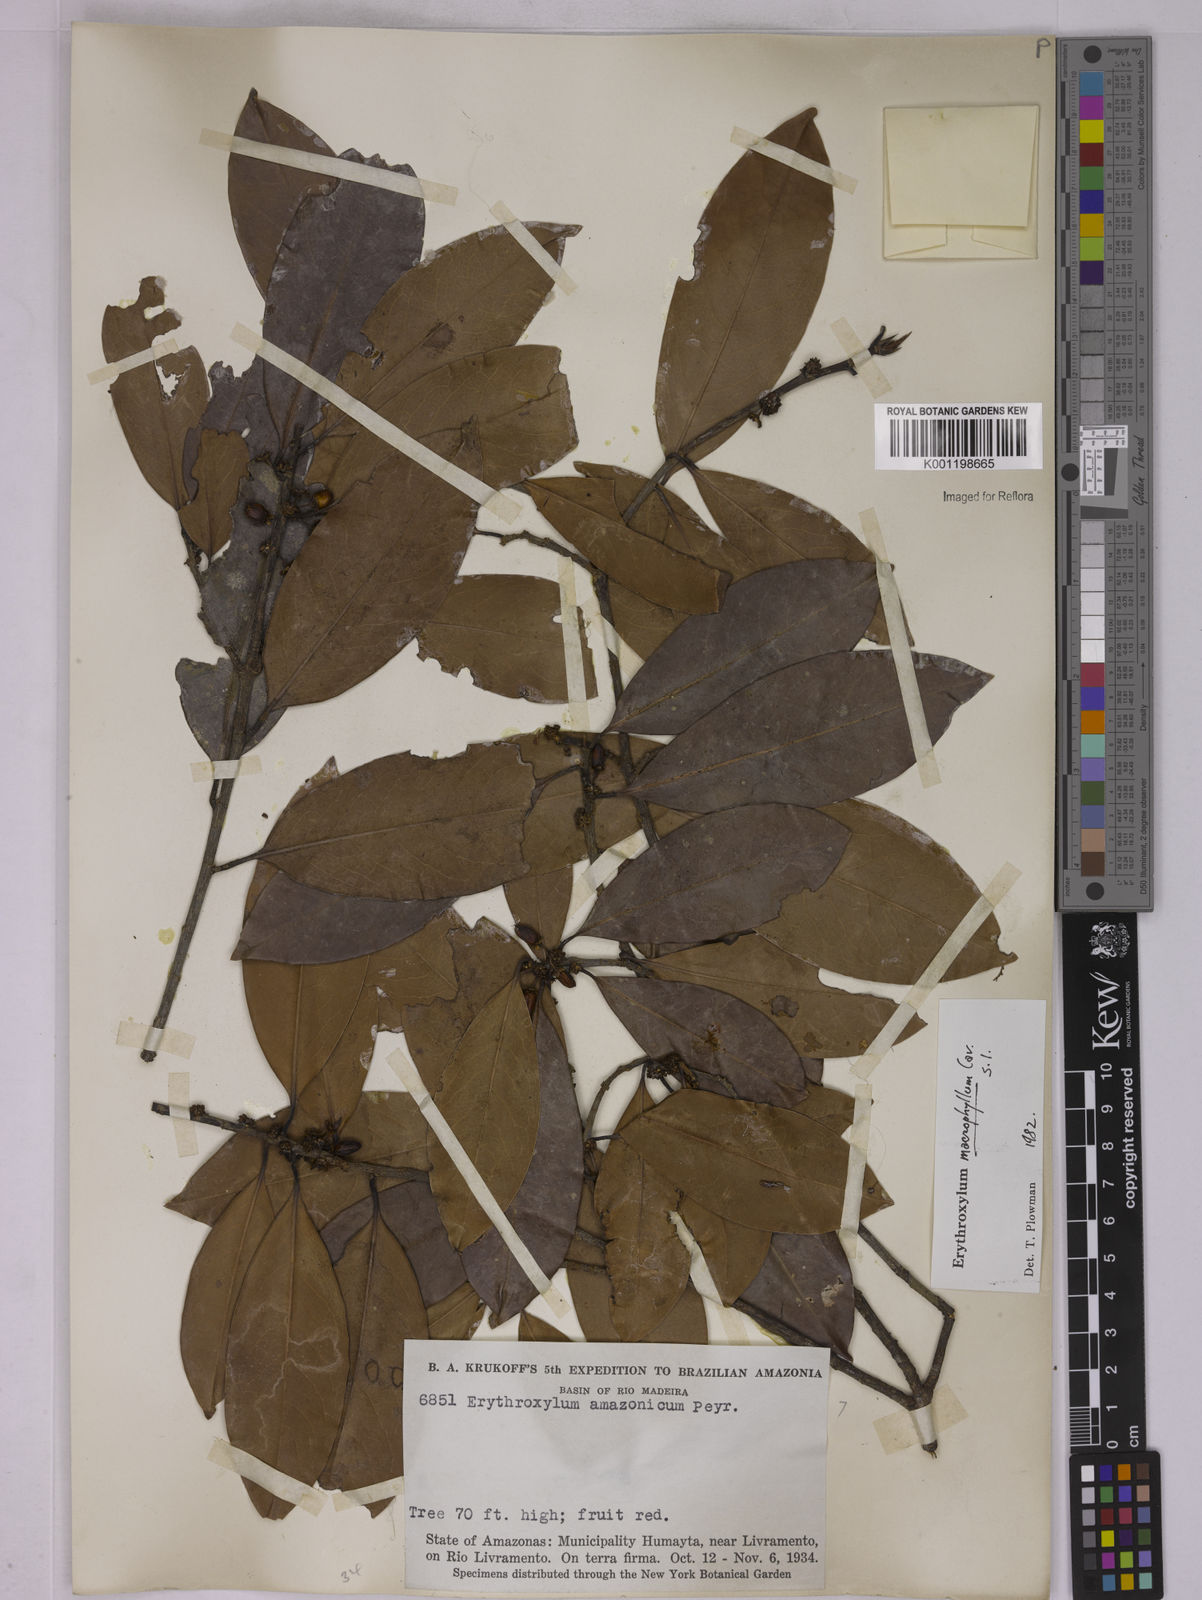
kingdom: Plantae
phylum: Tracheophyta
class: Magnoliopsida
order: Malpighiales
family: Erythroxylaceae
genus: Erythroxylum
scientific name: Erythroxylum macrophyllum
